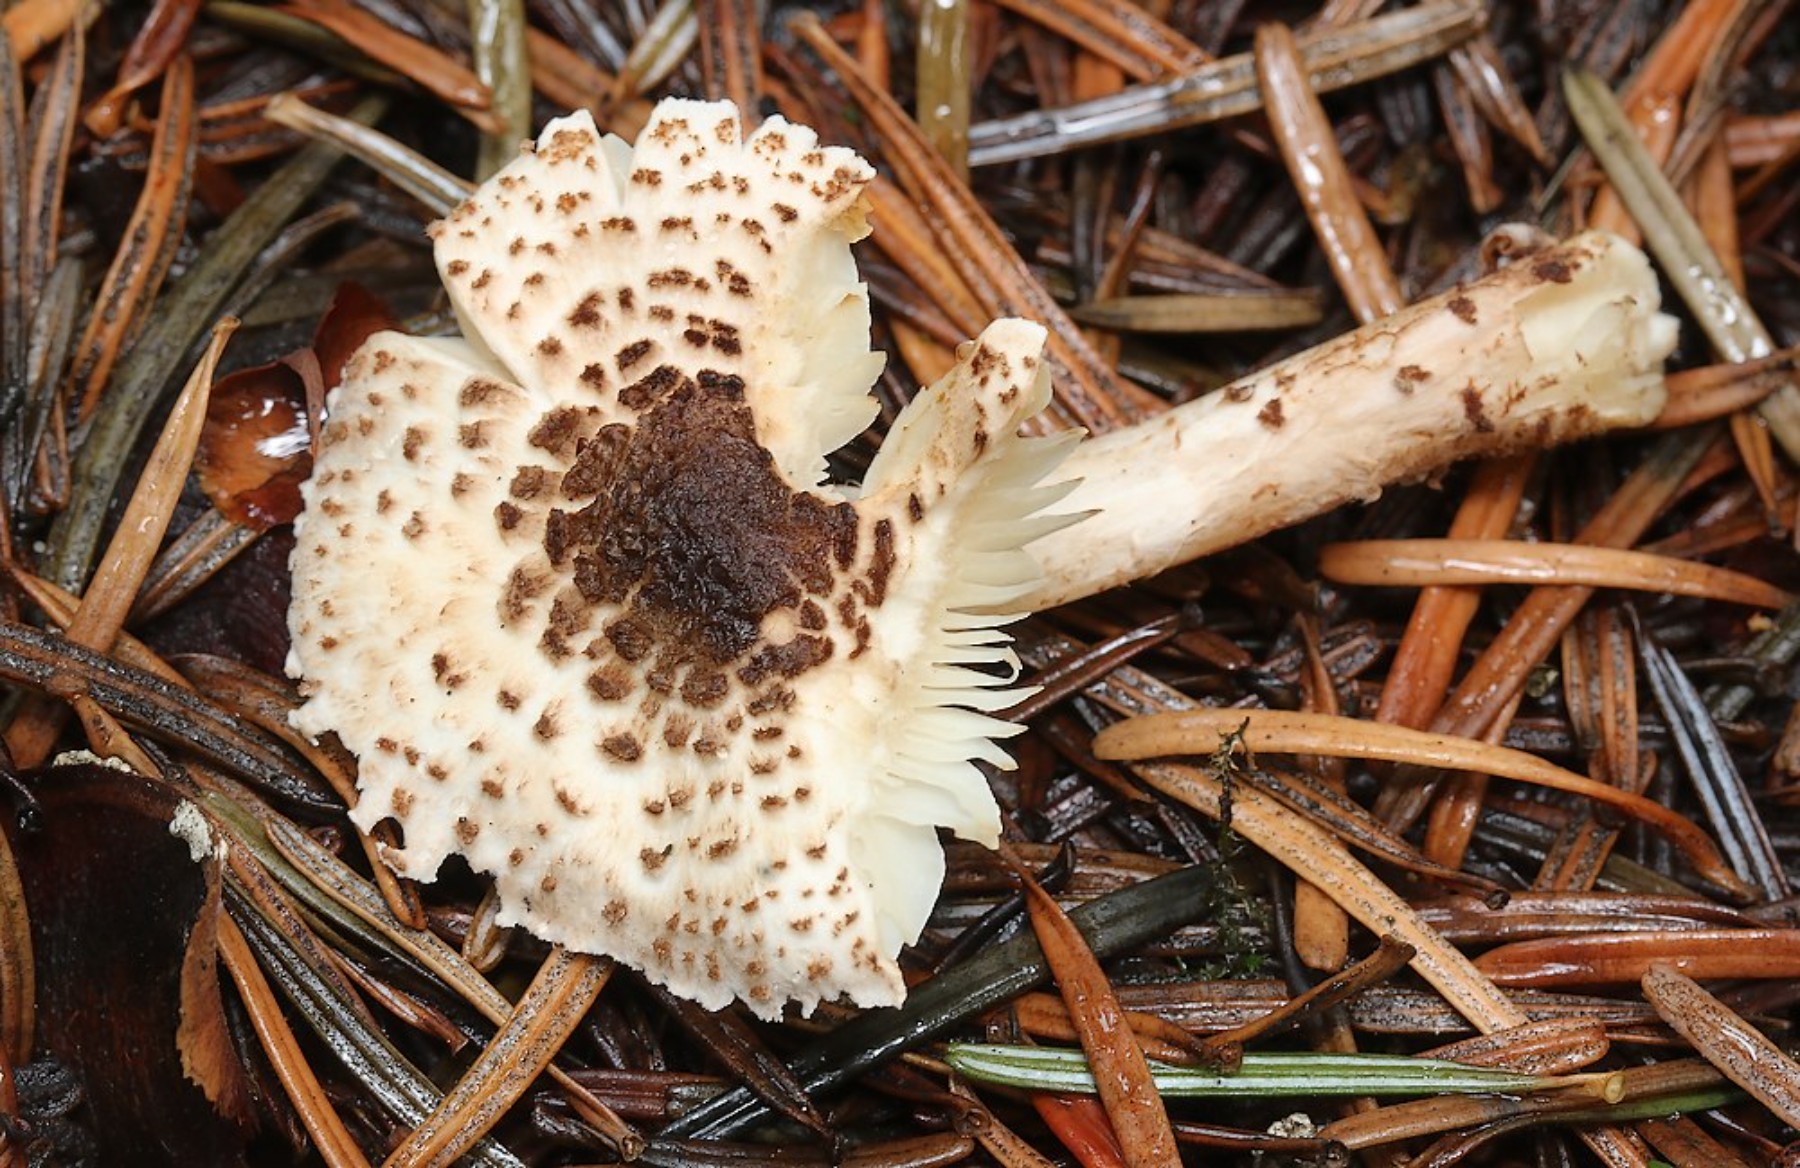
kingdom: Fungi
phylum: Basidiomycota
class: Agaricomycetes
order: Agaricales
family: Agaricaceae
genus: Lepiota
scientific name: Lepiota felina
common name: sortskællet parasolhat
